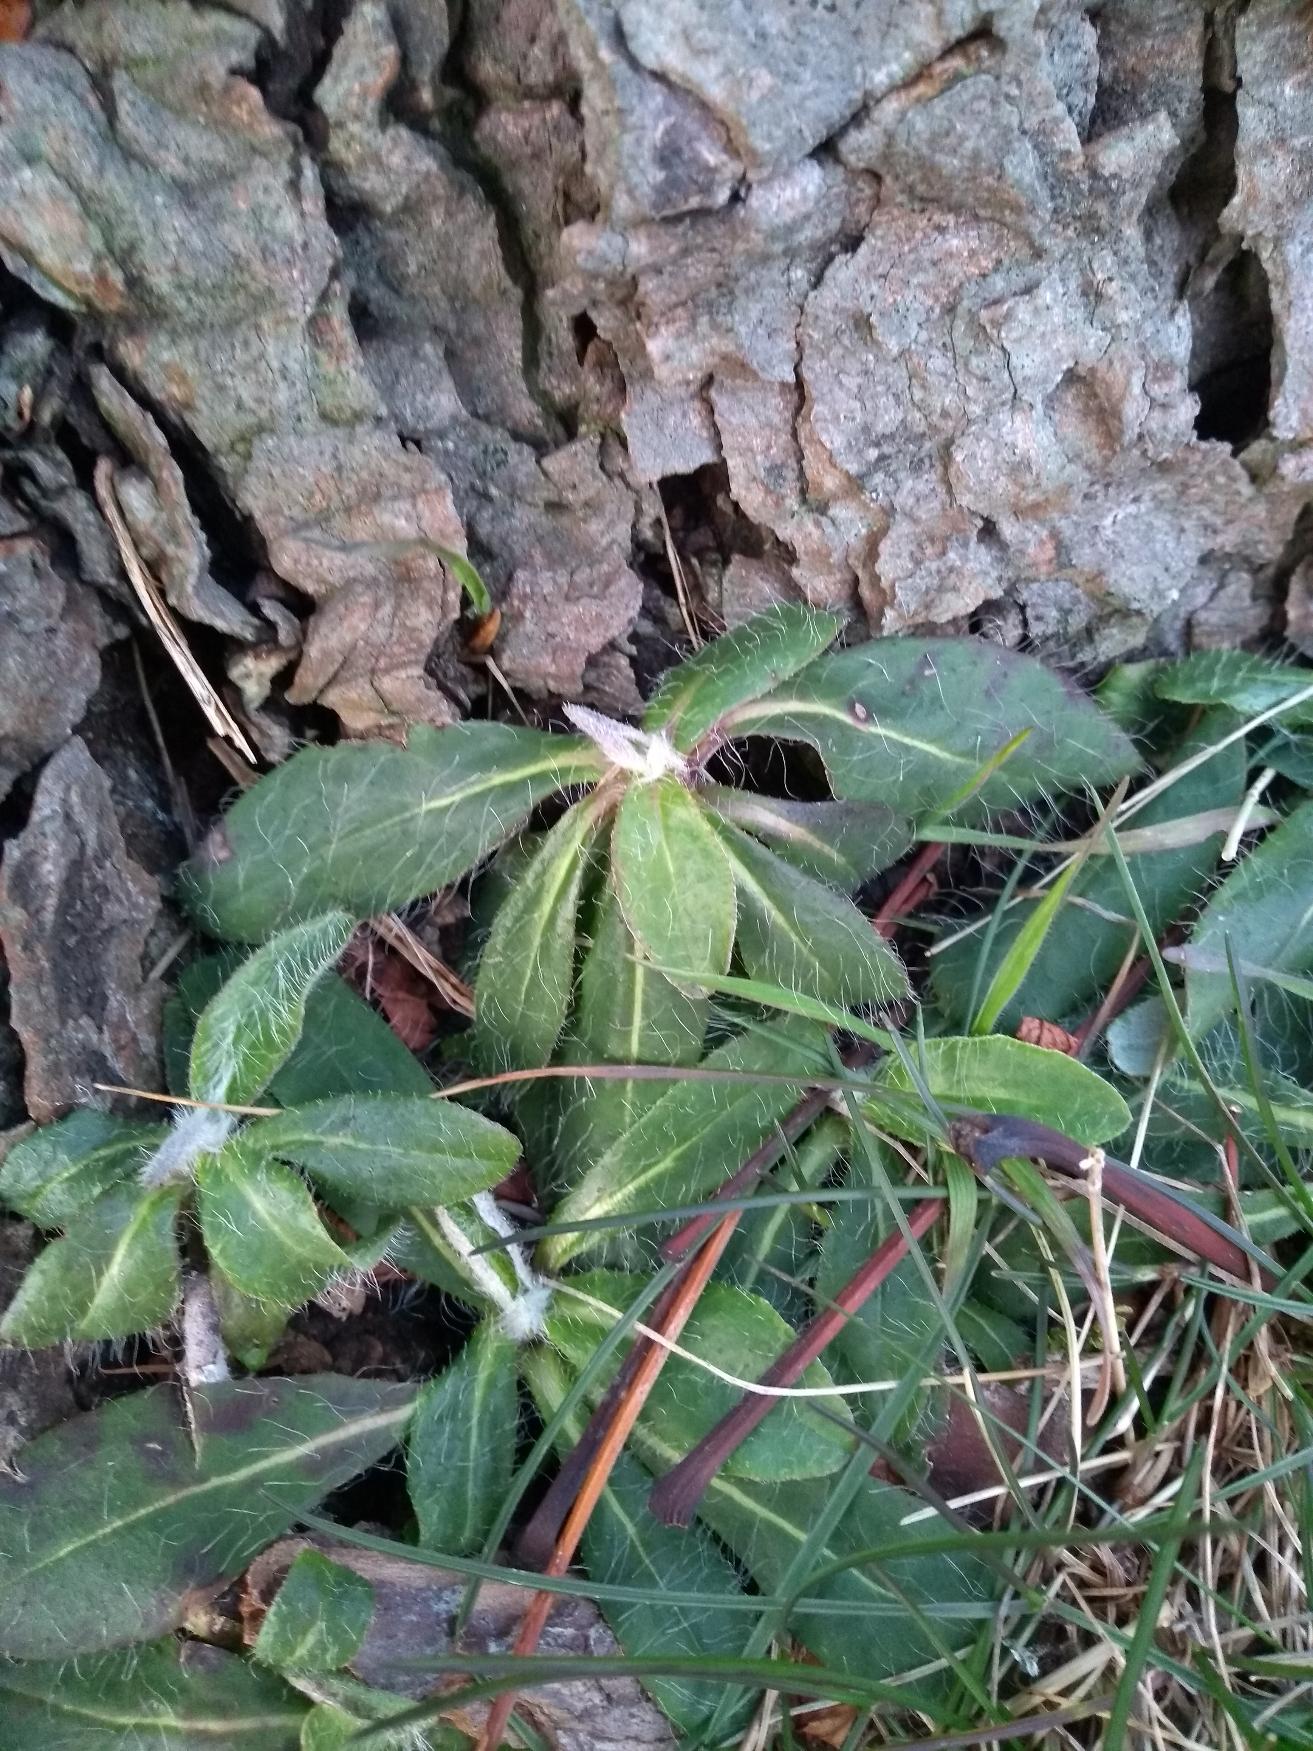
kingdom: Plantae
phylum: Tracheophyta
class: Magnoliopsida
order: Asterales
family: Asteraceae
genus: Pilosella
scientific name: Pilosella officinarum
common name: Håret høgeurt
